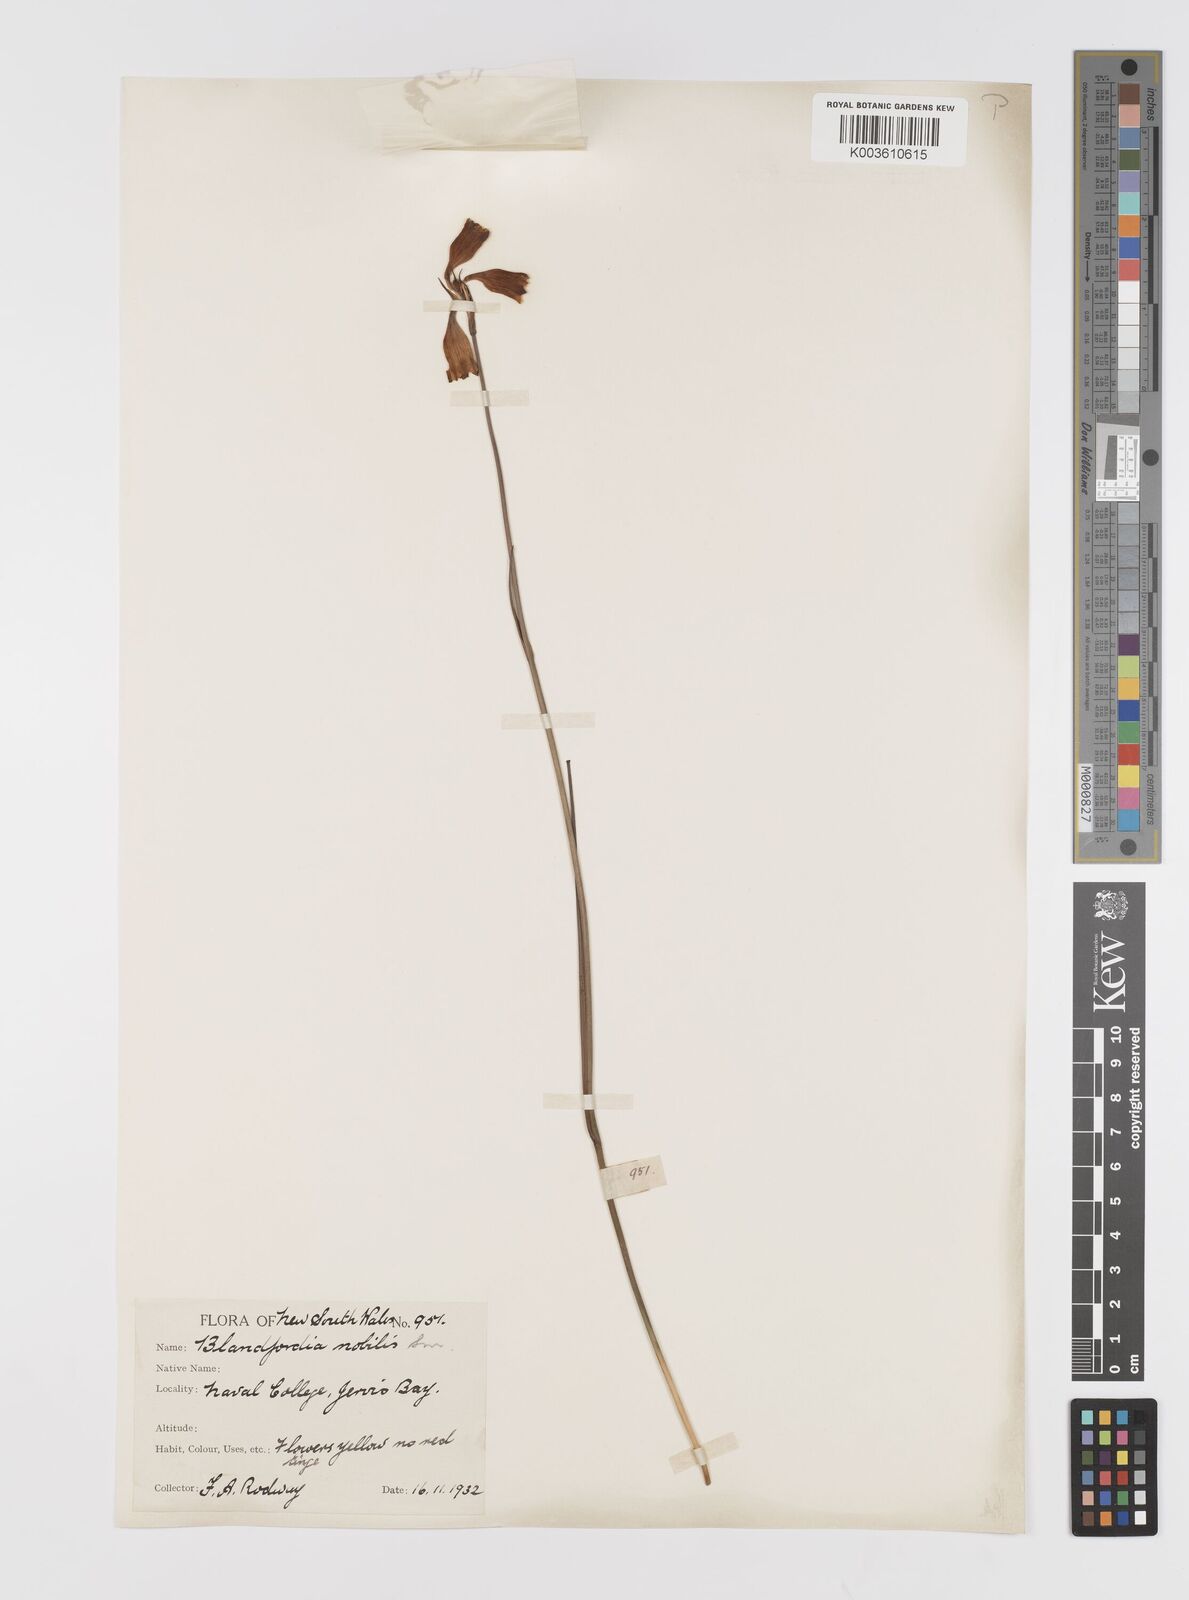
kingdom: Plantae
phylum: Tracheophyta
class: Liliopsida
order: Asparagales
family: Blandfordiaceae
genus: Blandfordia
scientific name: Blandfordia nobilis
